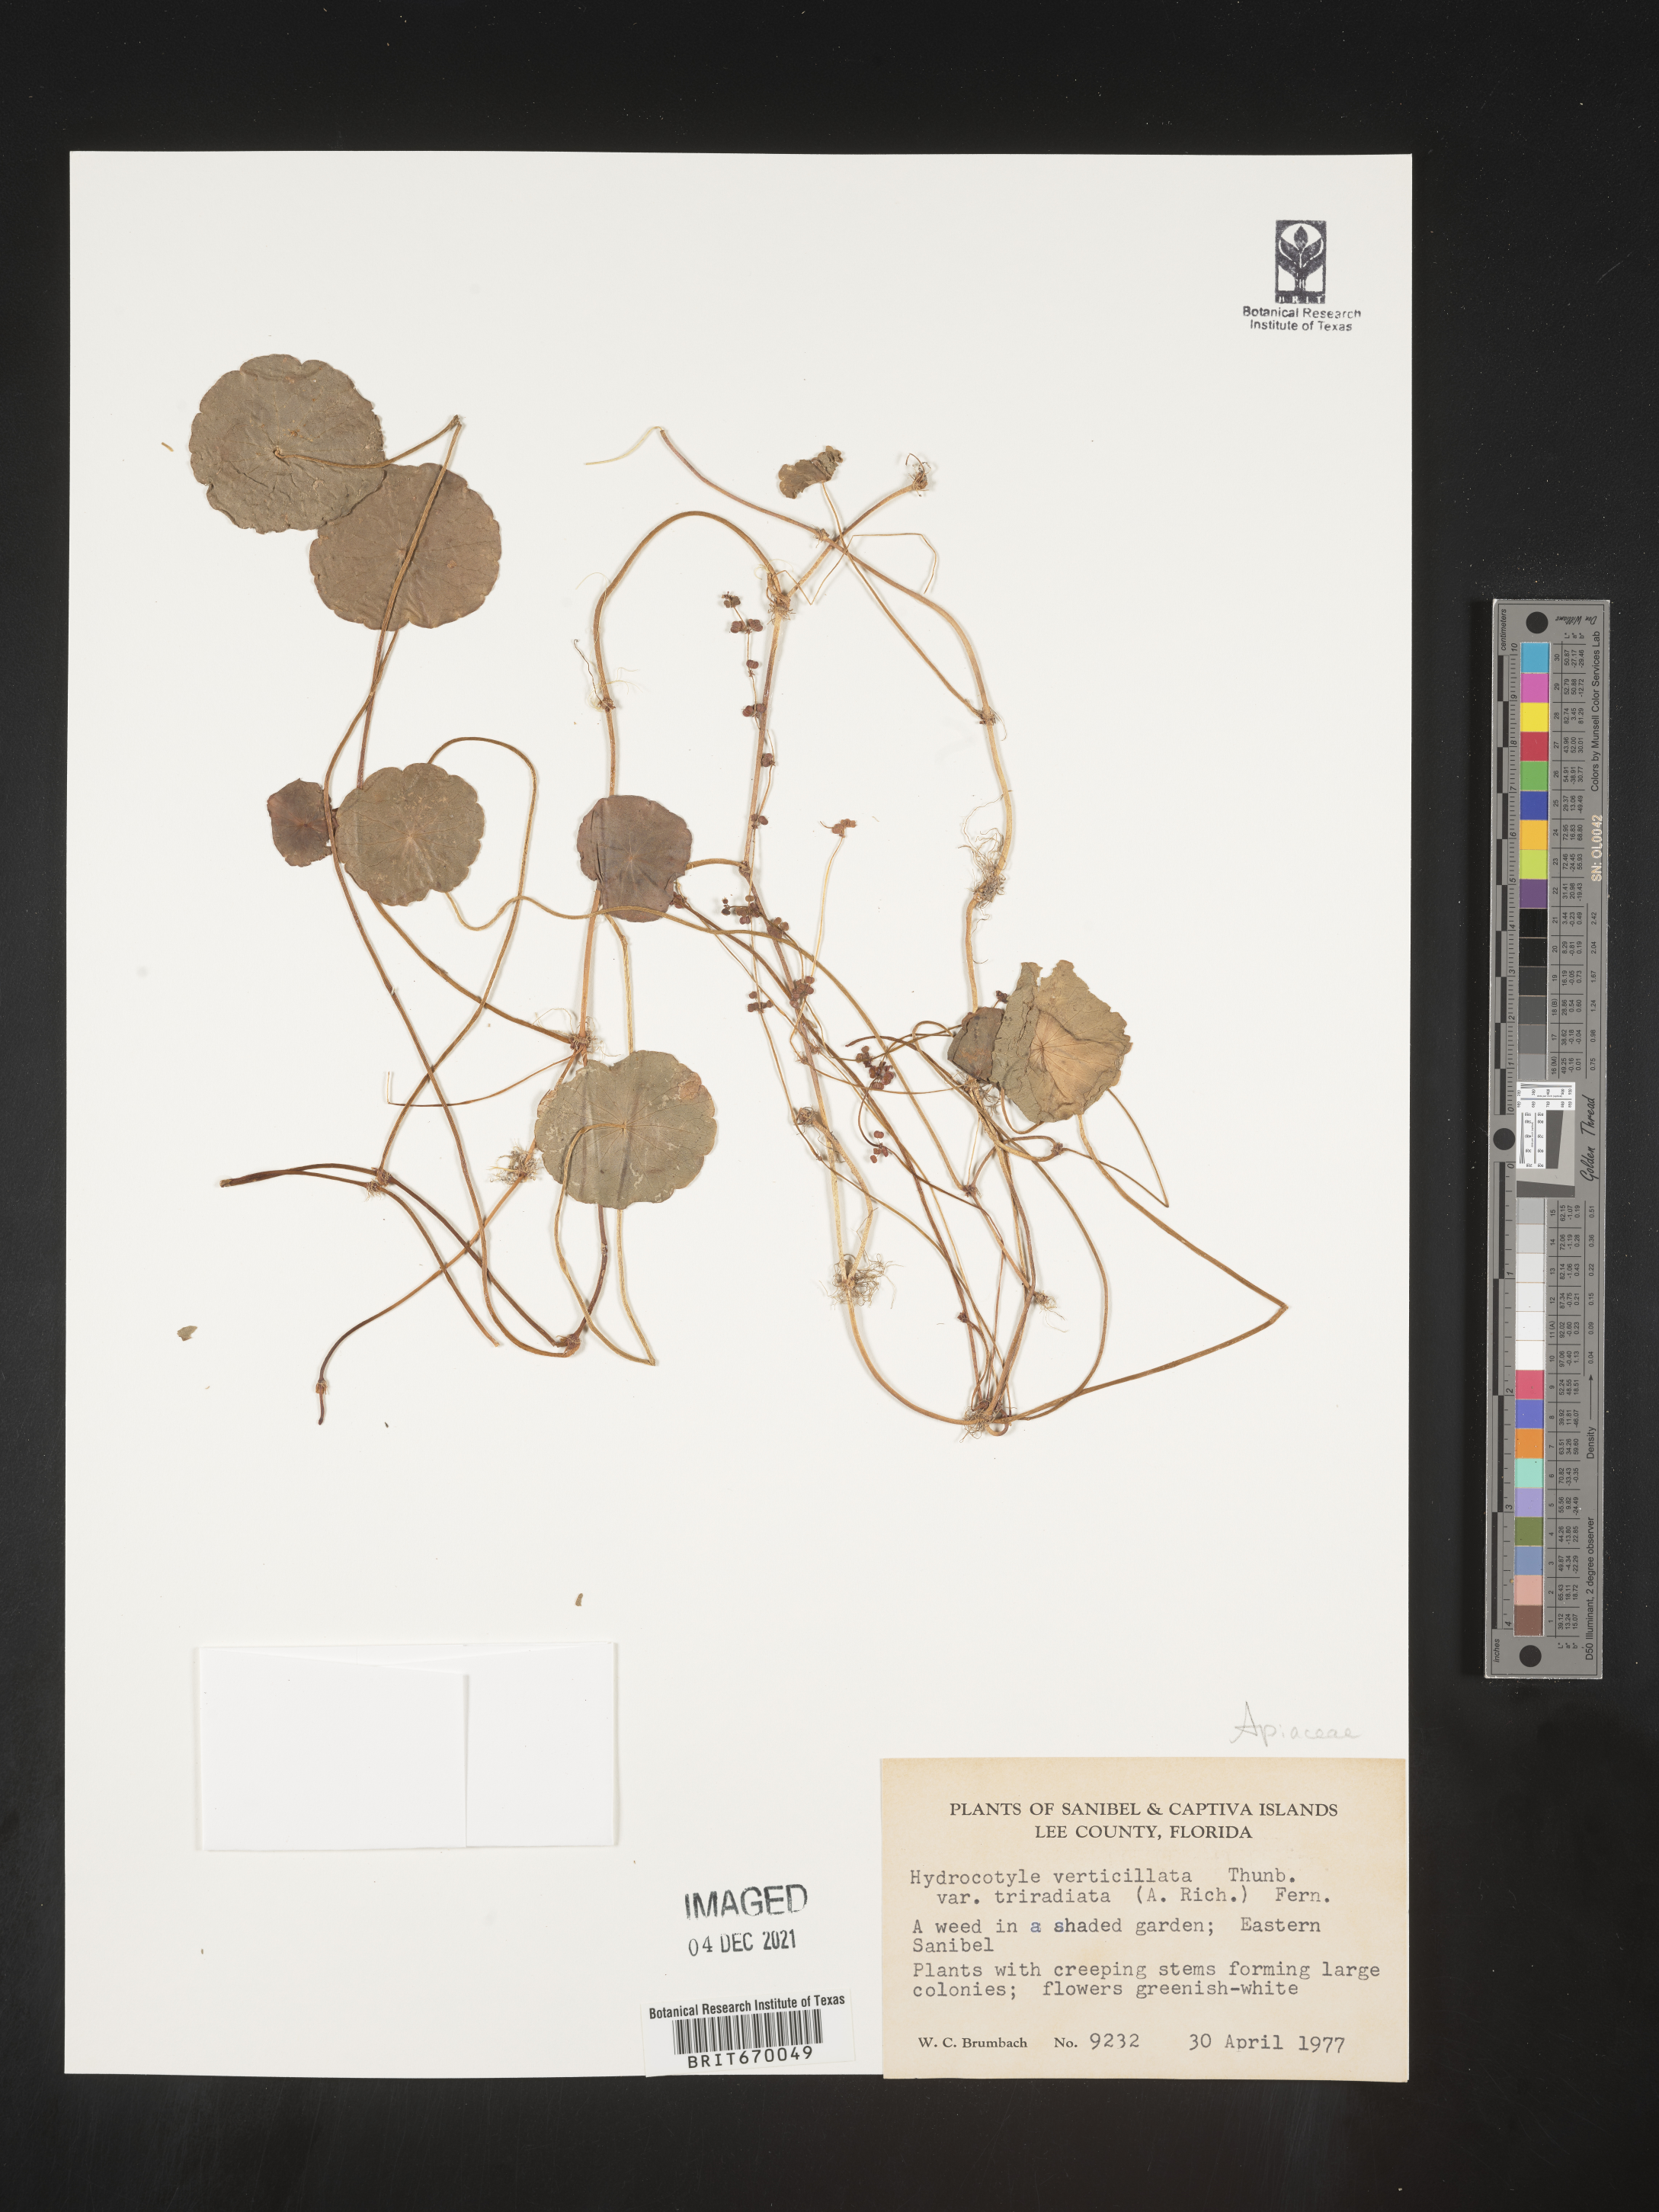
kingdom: Plantae
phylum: Tracheophyta
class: Magnoliopsida
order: Apiales
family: Araliaceae
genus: Hydrocotyle
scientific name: Hydrocotyle verticillata
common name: Whorled marshpennywort
